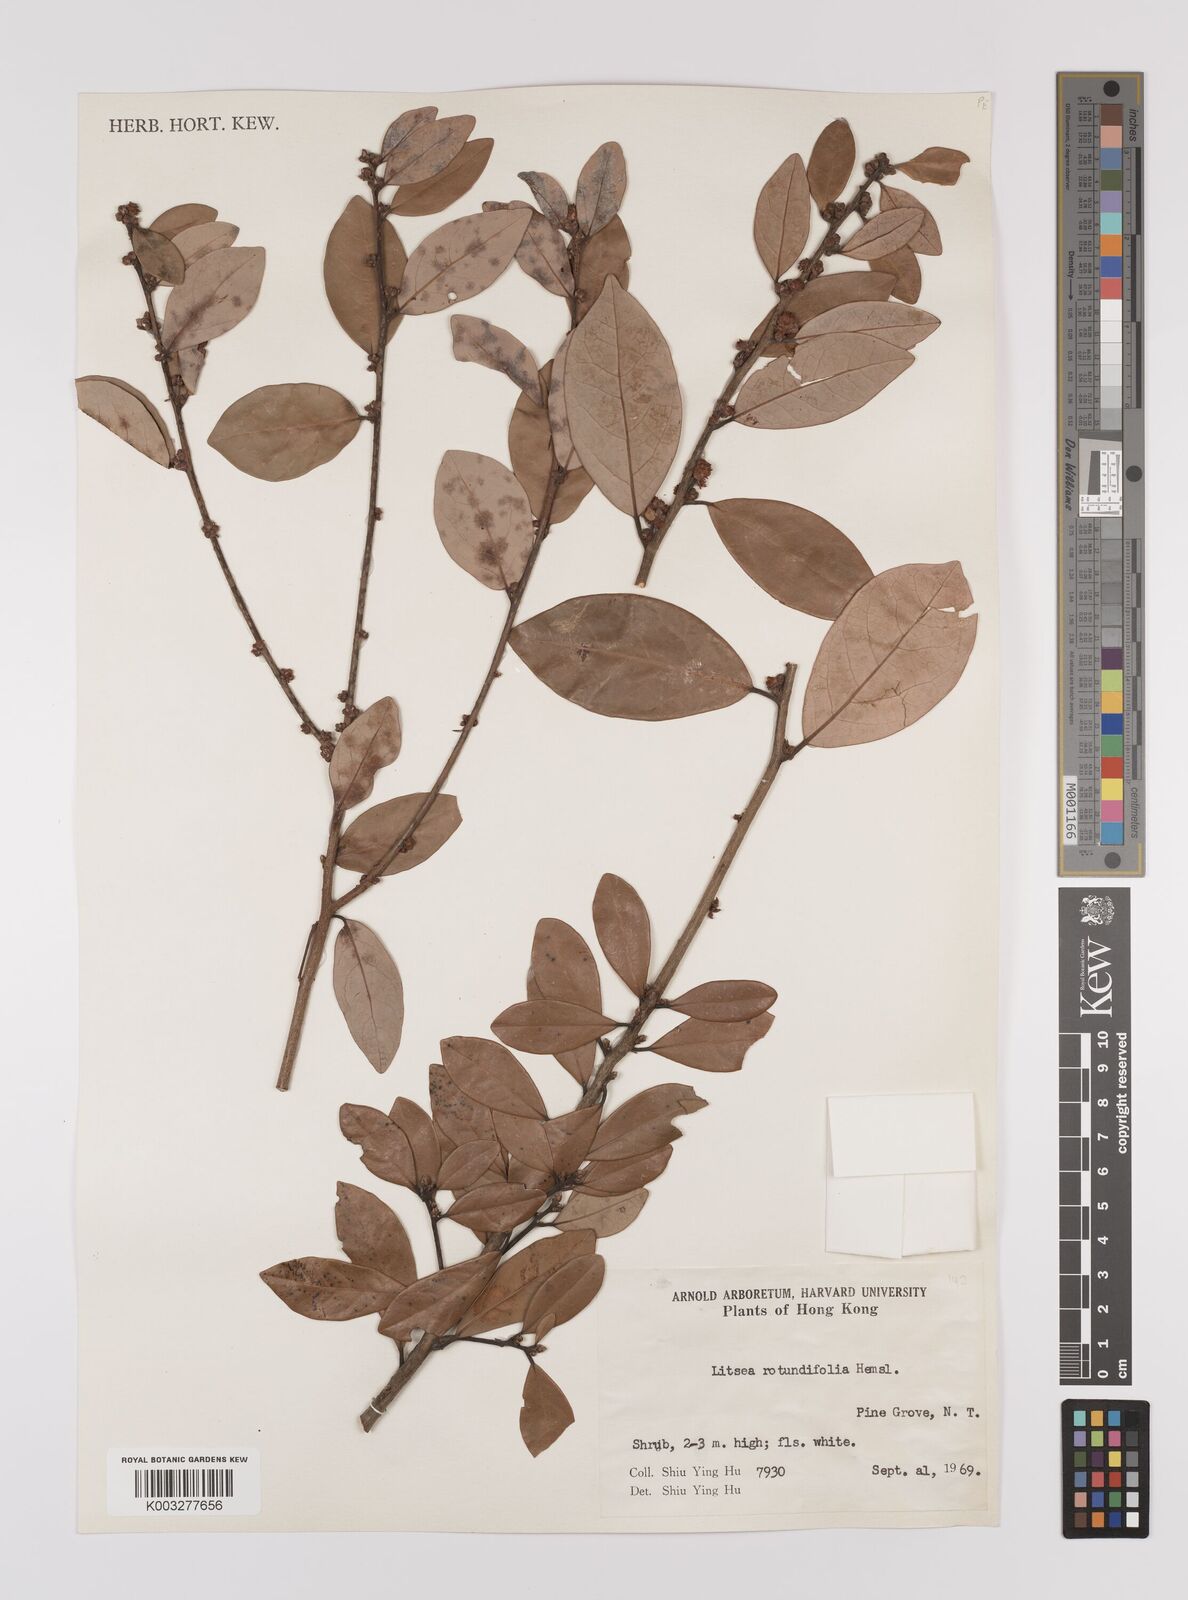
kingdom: Plantae
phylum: Tracheophyta
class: Magnoliopsida
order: Laurales
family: Lauraceae
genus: Litsea
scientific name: Litsea rotundifolia
